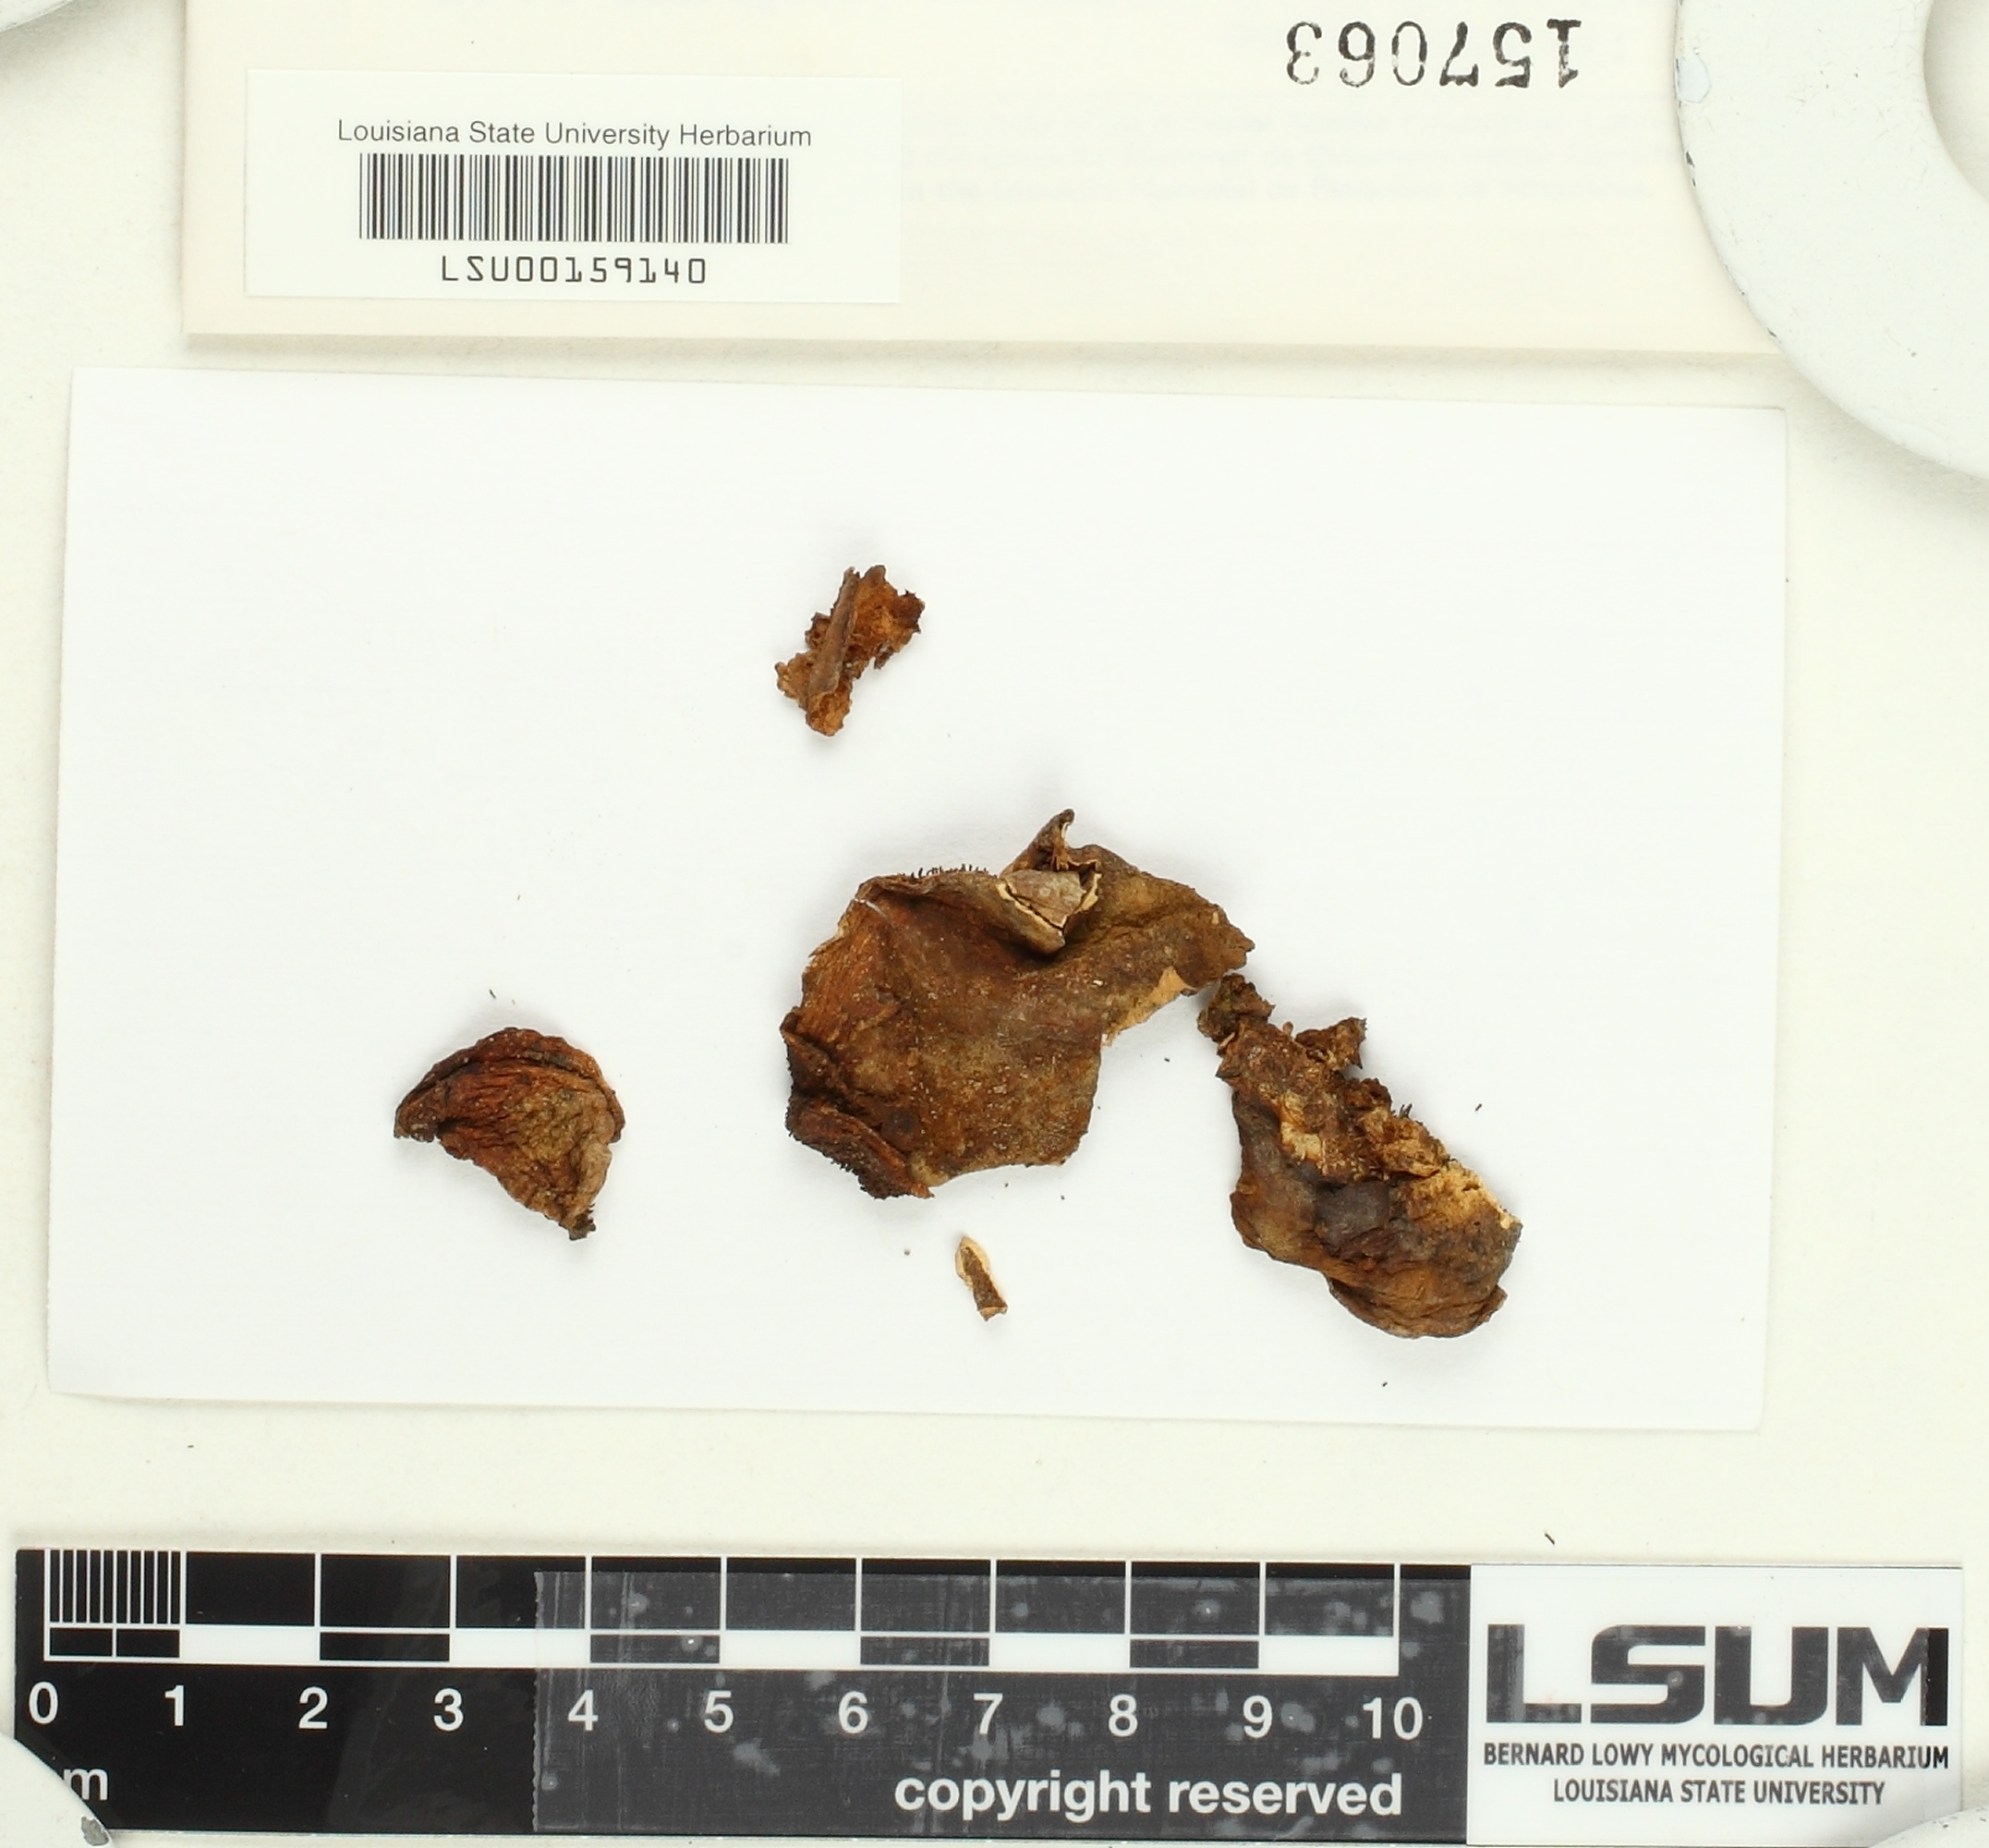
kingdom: Fungi
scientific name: Fungi
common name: Fungi
